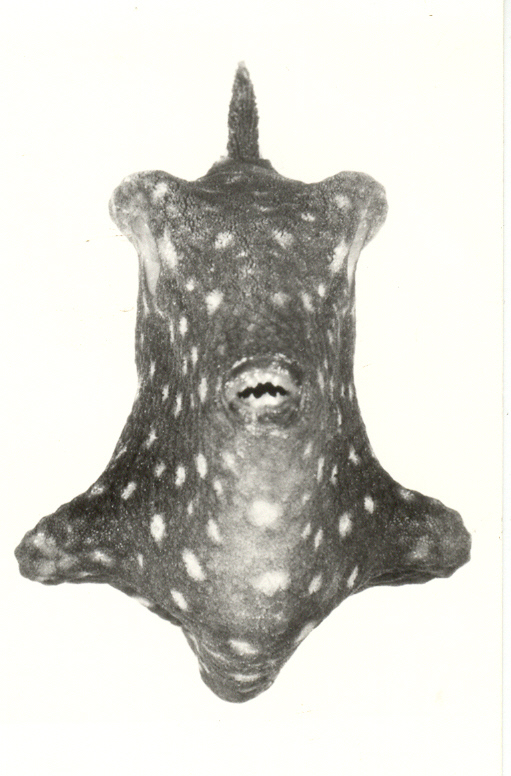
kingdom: Animalia
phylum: Chordata
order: Tetraodontiformes
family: Balistidae
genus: Xanthichthys
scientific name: Xanthichthys caeruleolineatus
